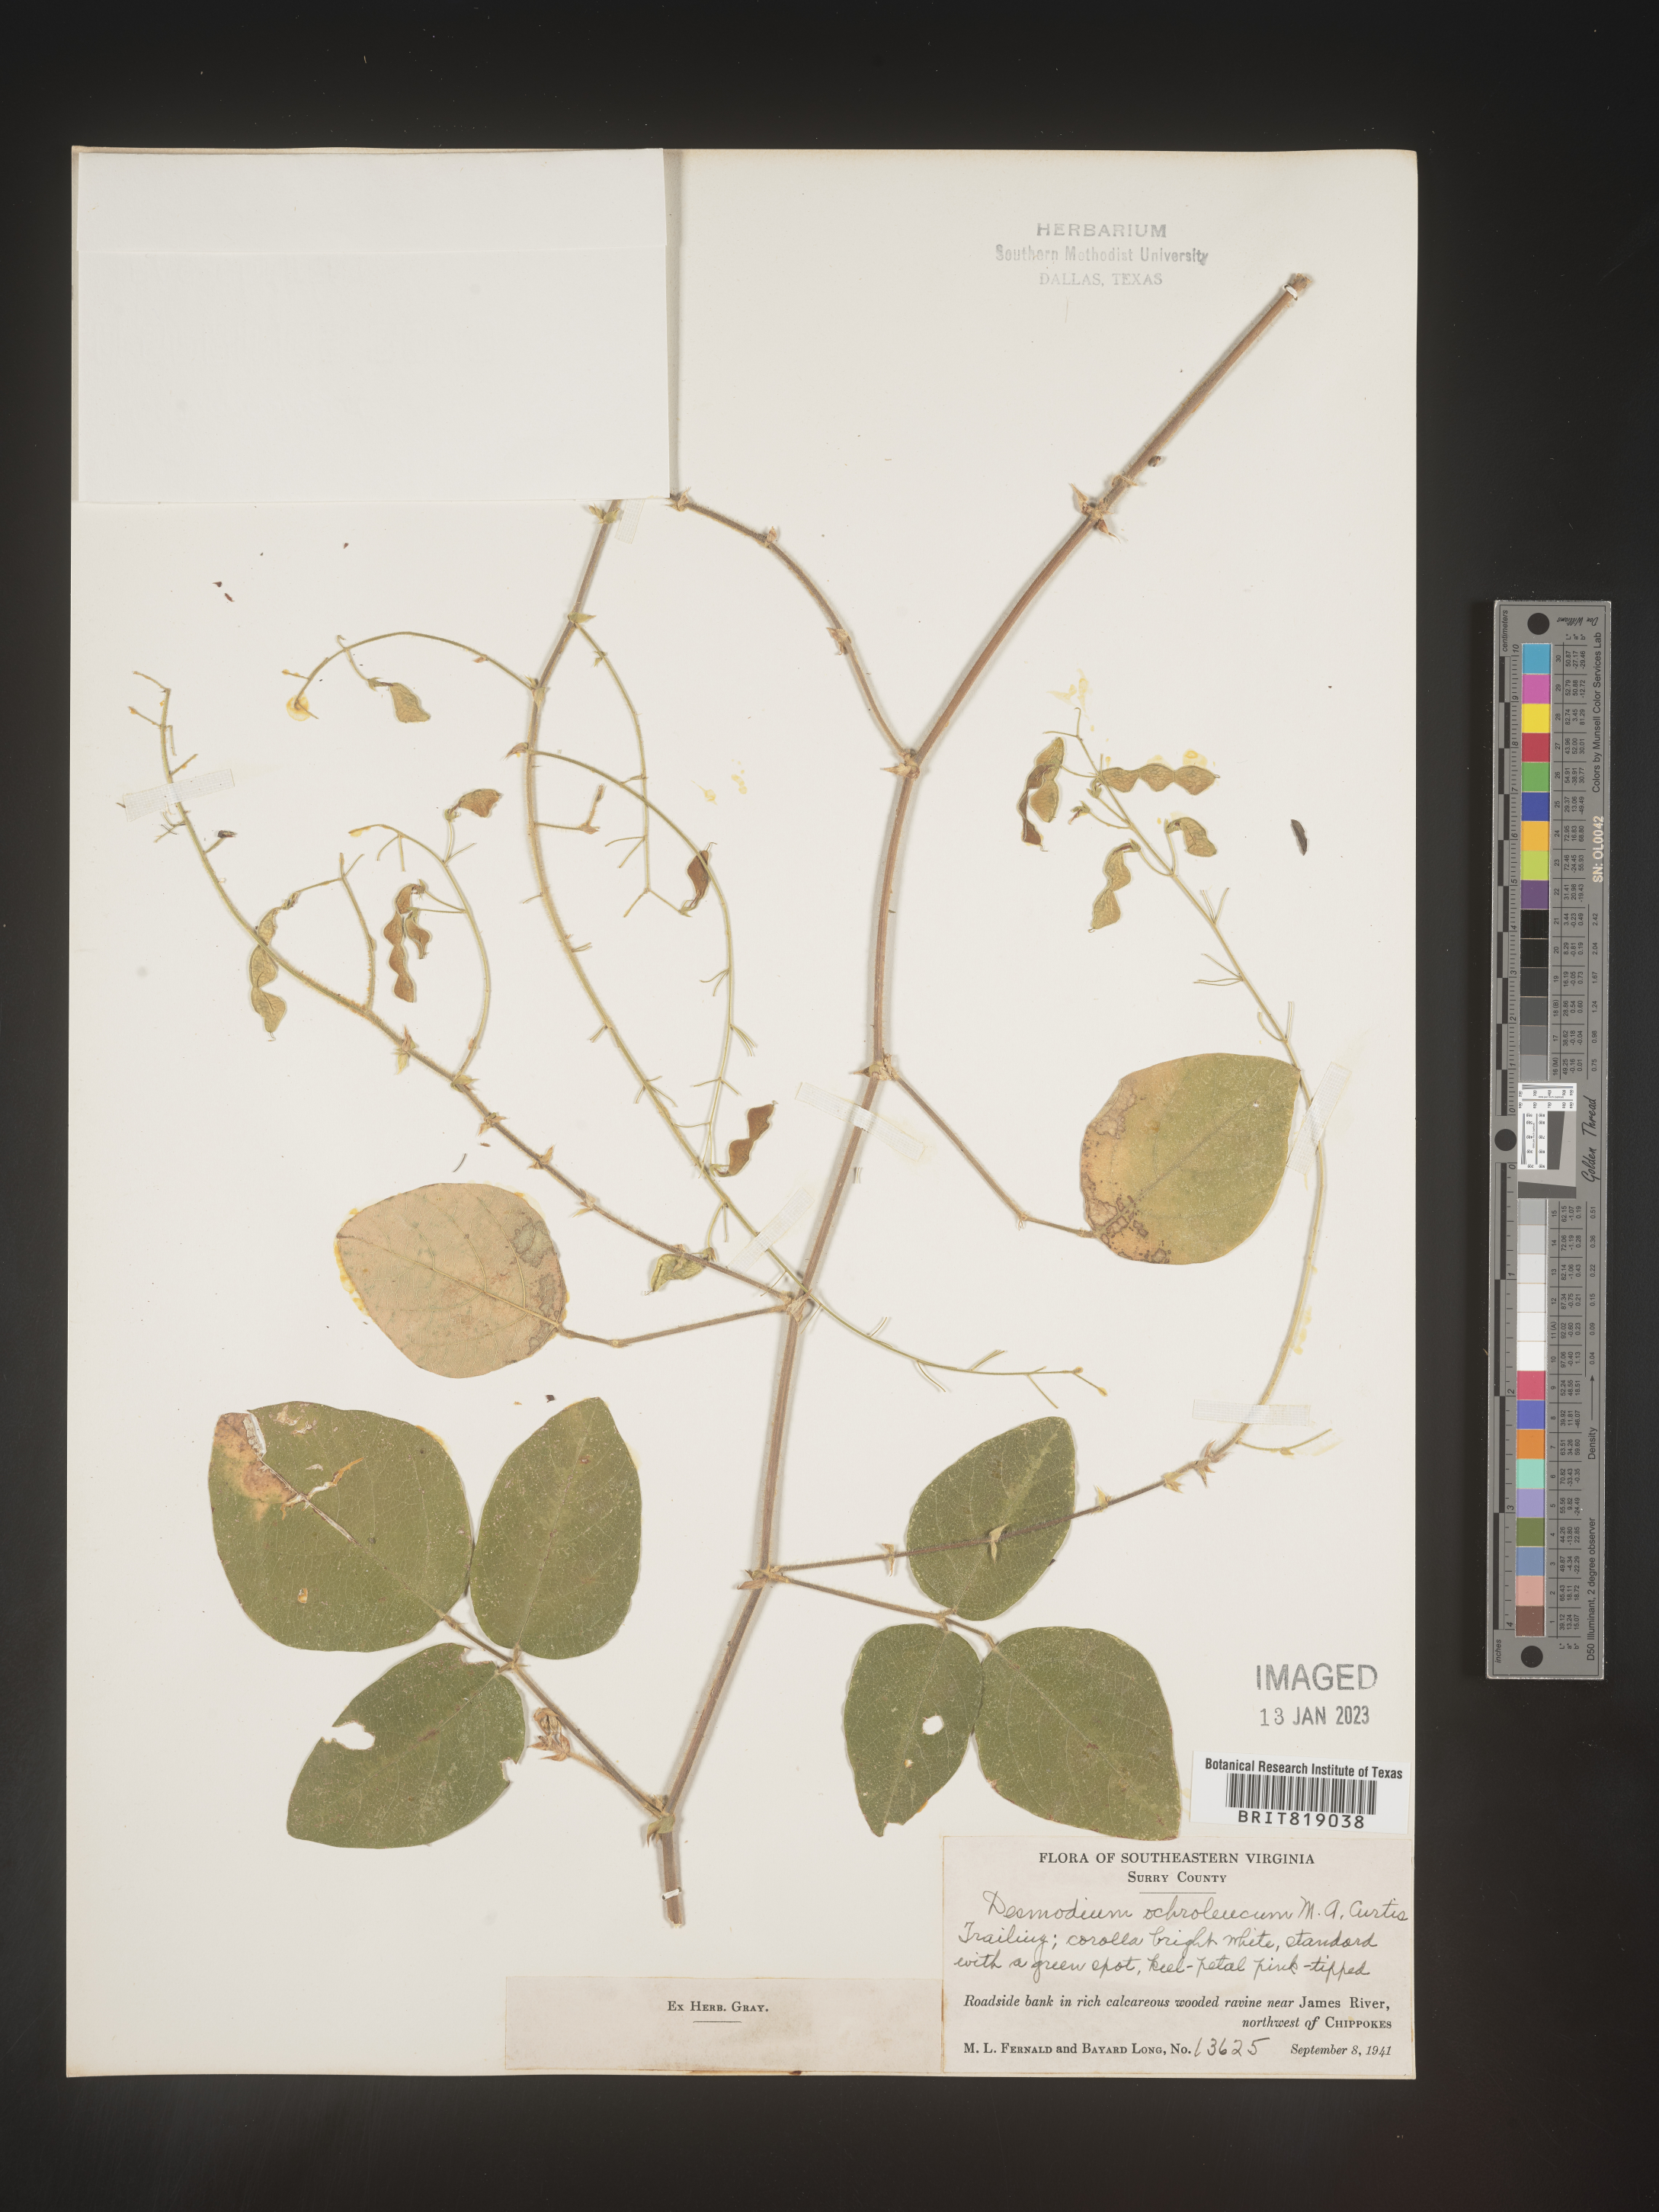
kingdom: Plantae
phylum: Tracheophyta
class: Magnoliopsida
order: Fabales
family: Fabaceae
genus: Desmodium
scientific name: Desmodium ochroleucum
